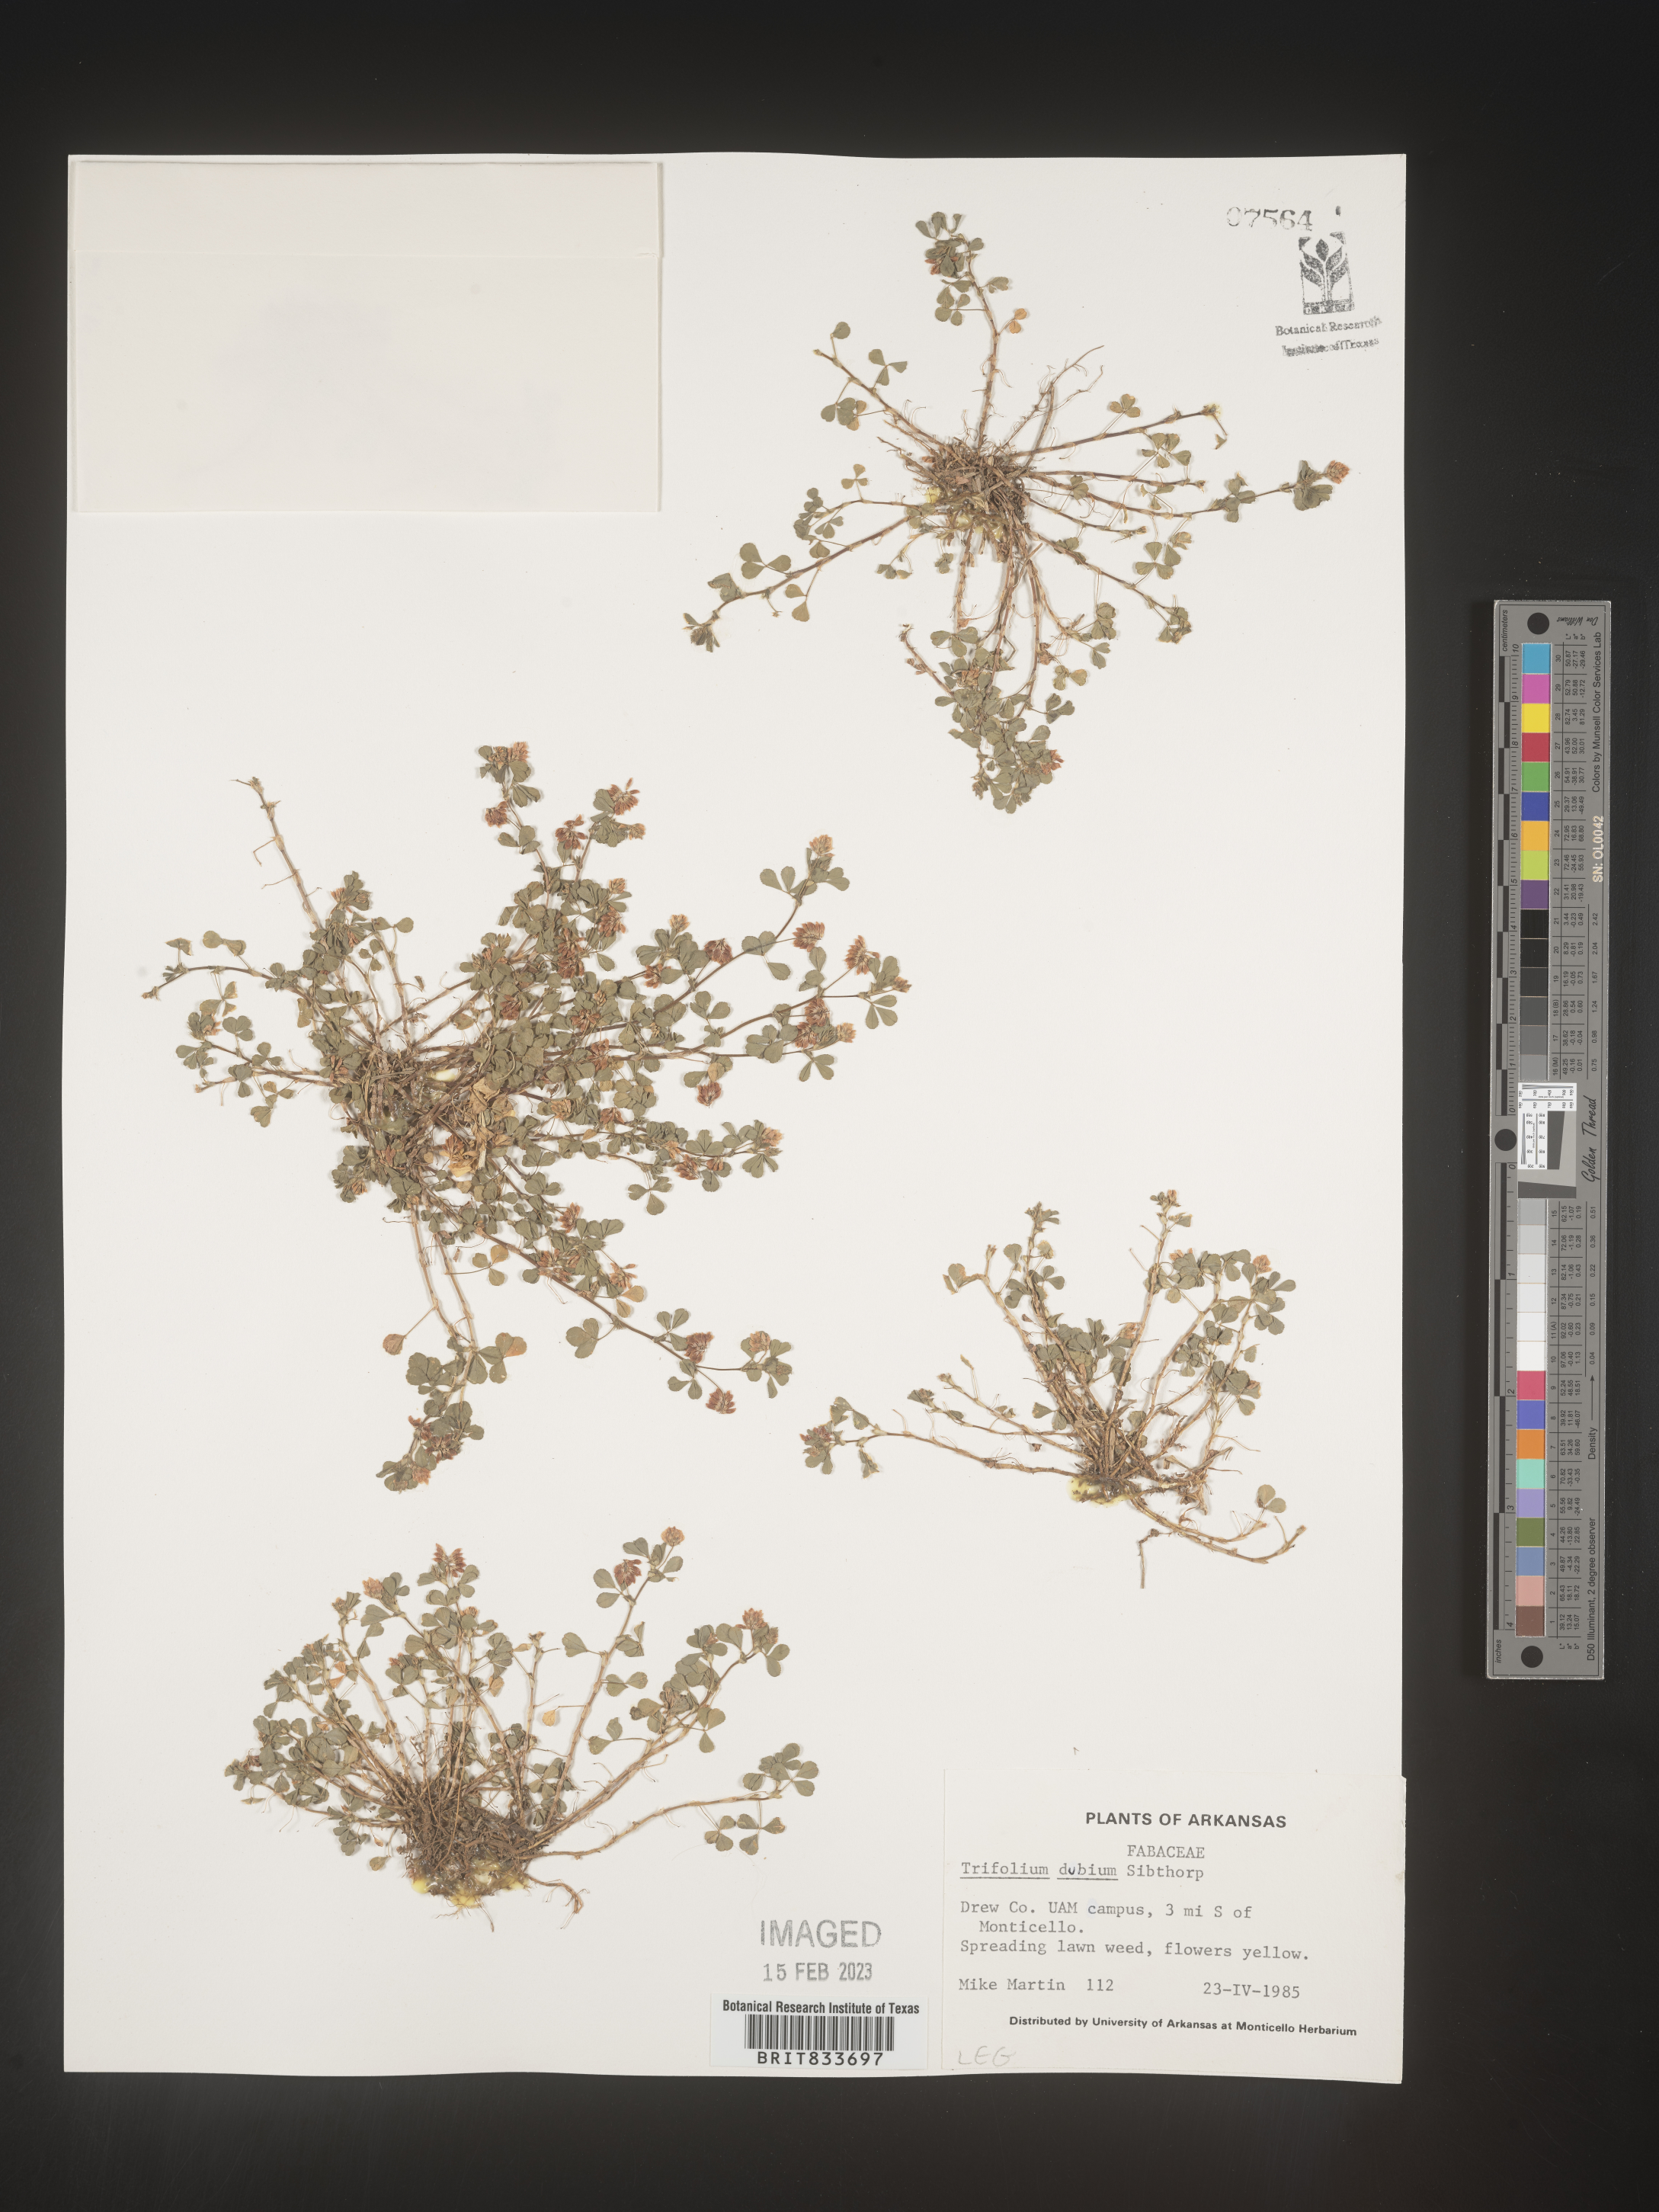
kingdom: Plantae
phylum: Tracheophyta
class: Magnoliopsida
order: Fabales
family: Fabaceae
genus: Trifolium
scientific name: Trifolium dubium
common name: Suckling clover
